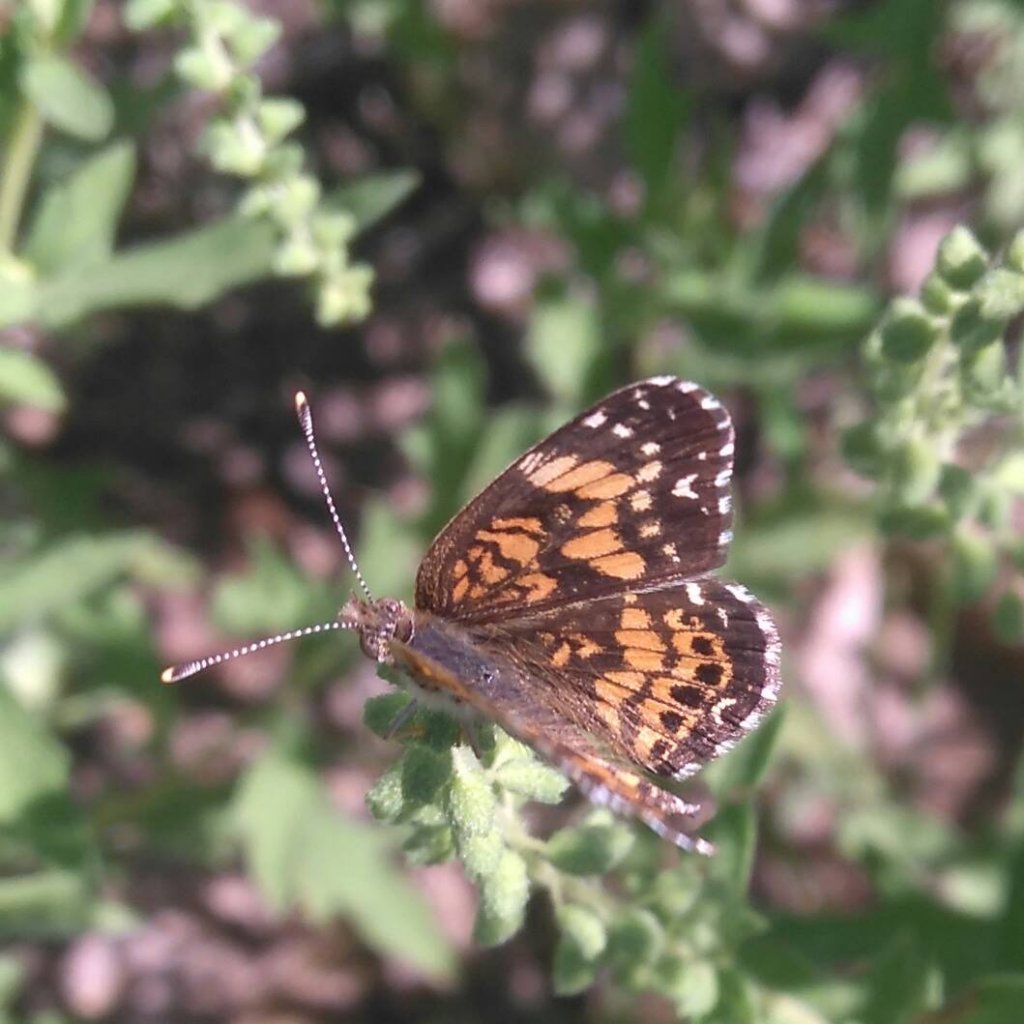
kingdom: Animalia
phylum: Arthropoda
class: Insecta
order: Lepidoptera
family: Nymphalidae
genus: Chlosyne
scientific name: Chlosyne gorgone
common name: Gorgone Checkerspot
